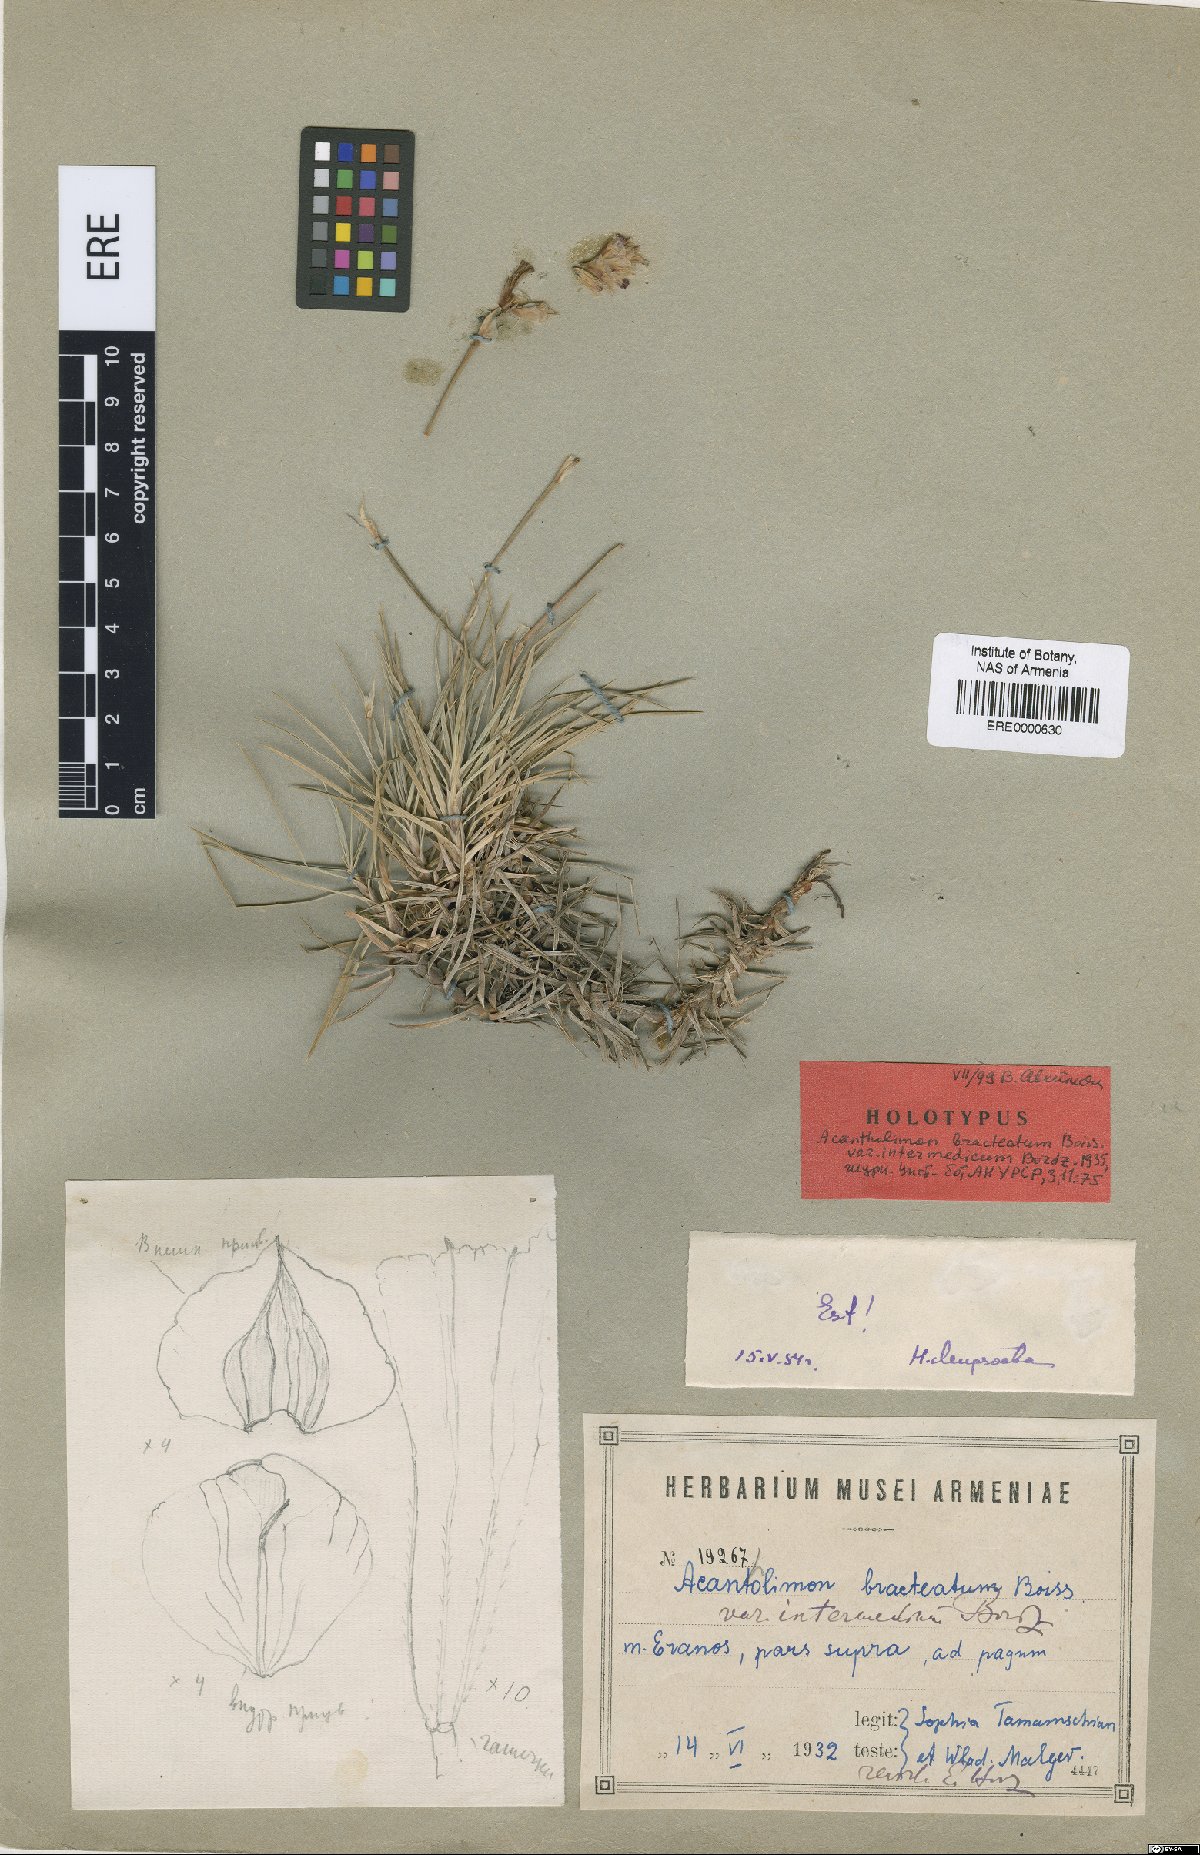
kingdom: Plantae
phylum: Tracheophyta
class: Magnoliopsida
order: Caryophyllales
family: Plumbaginaceae
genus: Acantholimon
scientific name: Acantholimon bracteatum
